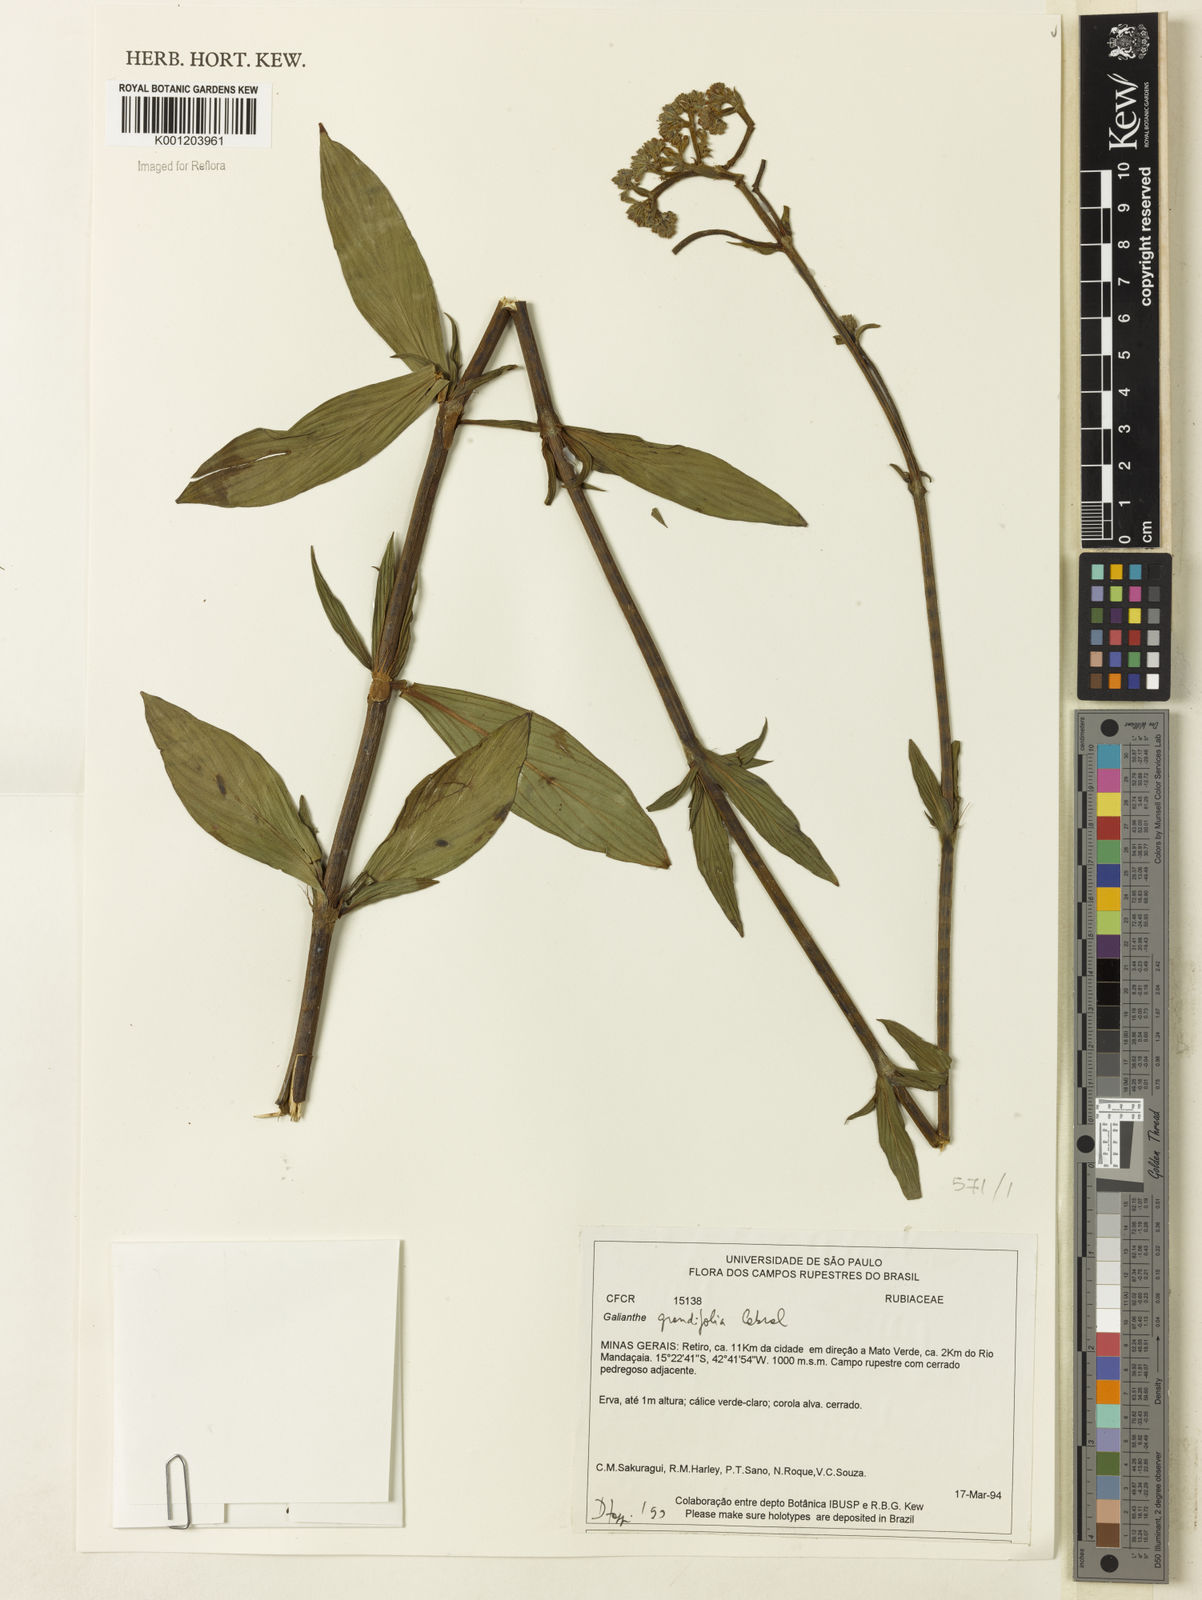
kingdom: Plantae
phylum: Tracheophyta
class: Magnoliopsida
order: Gentianales
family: Rubiaceae
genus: Galianthe
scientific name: Galianthe grandifolia
